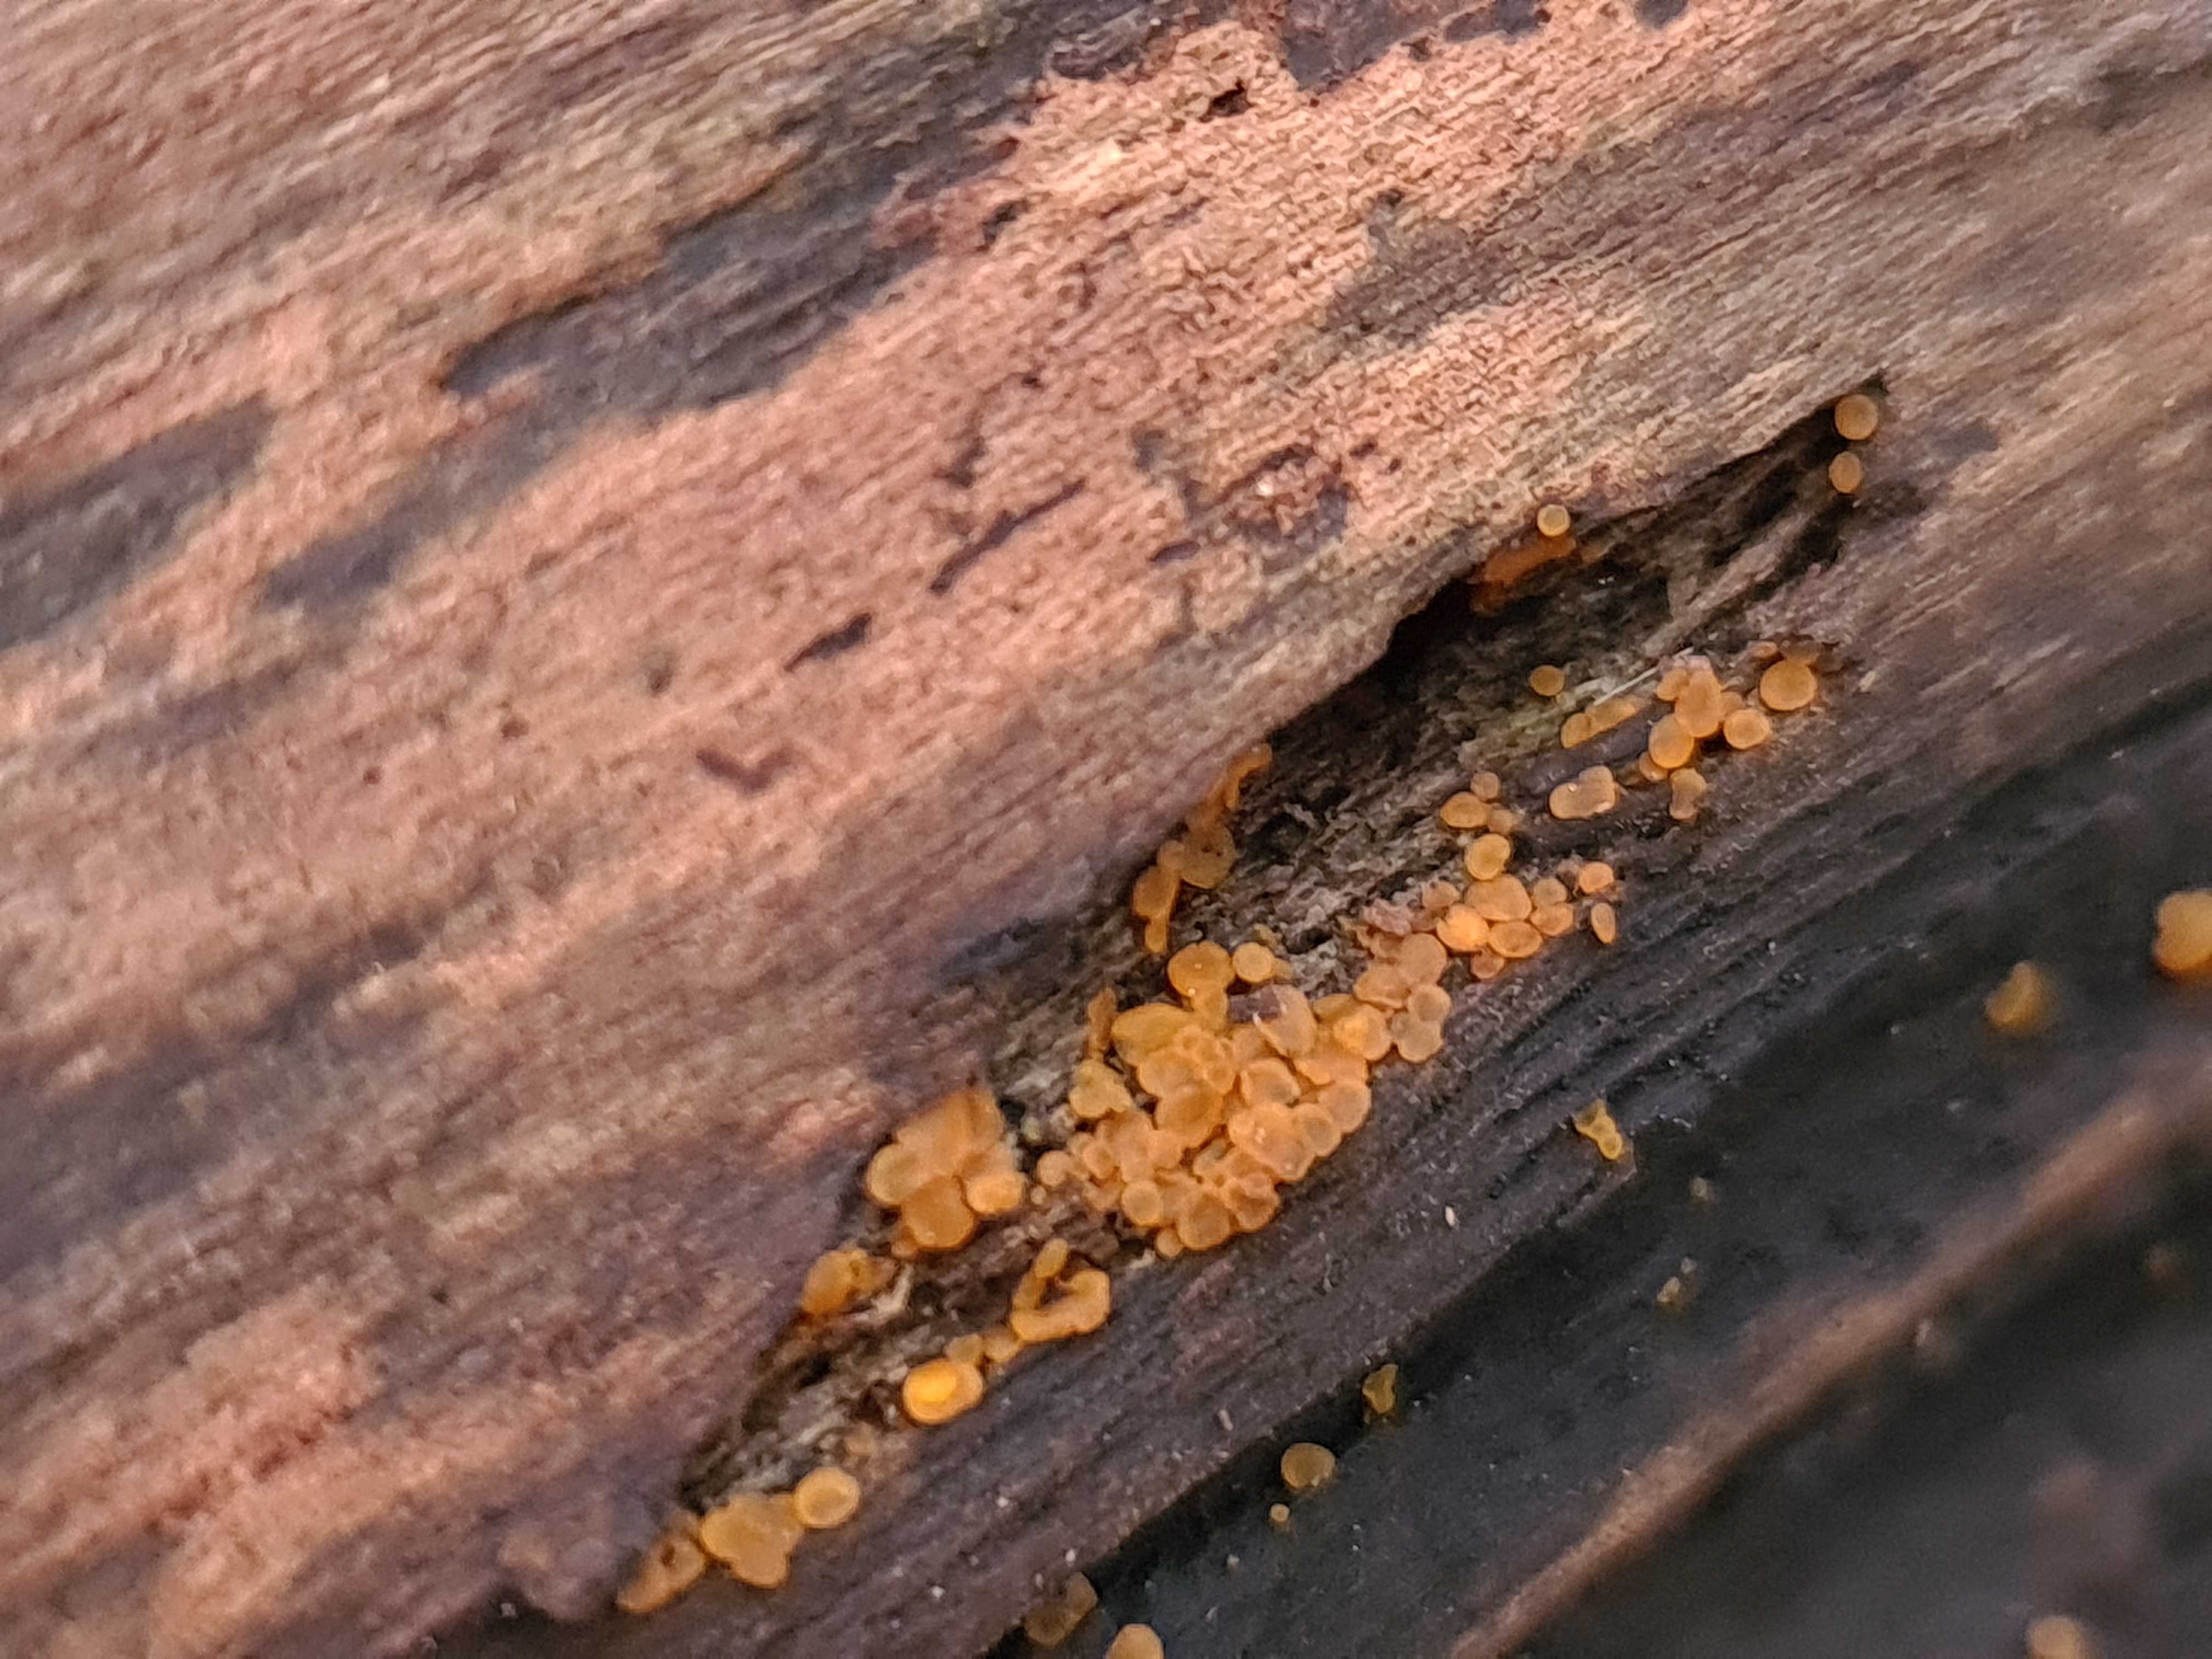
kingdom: Fungi
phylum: Ascomycota
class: Orbiliomycetes
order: Orbiliales
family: Orbiliaceae
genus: Orbilia
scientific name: Orbilia xanthostigma
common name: krumsporet voksskive
